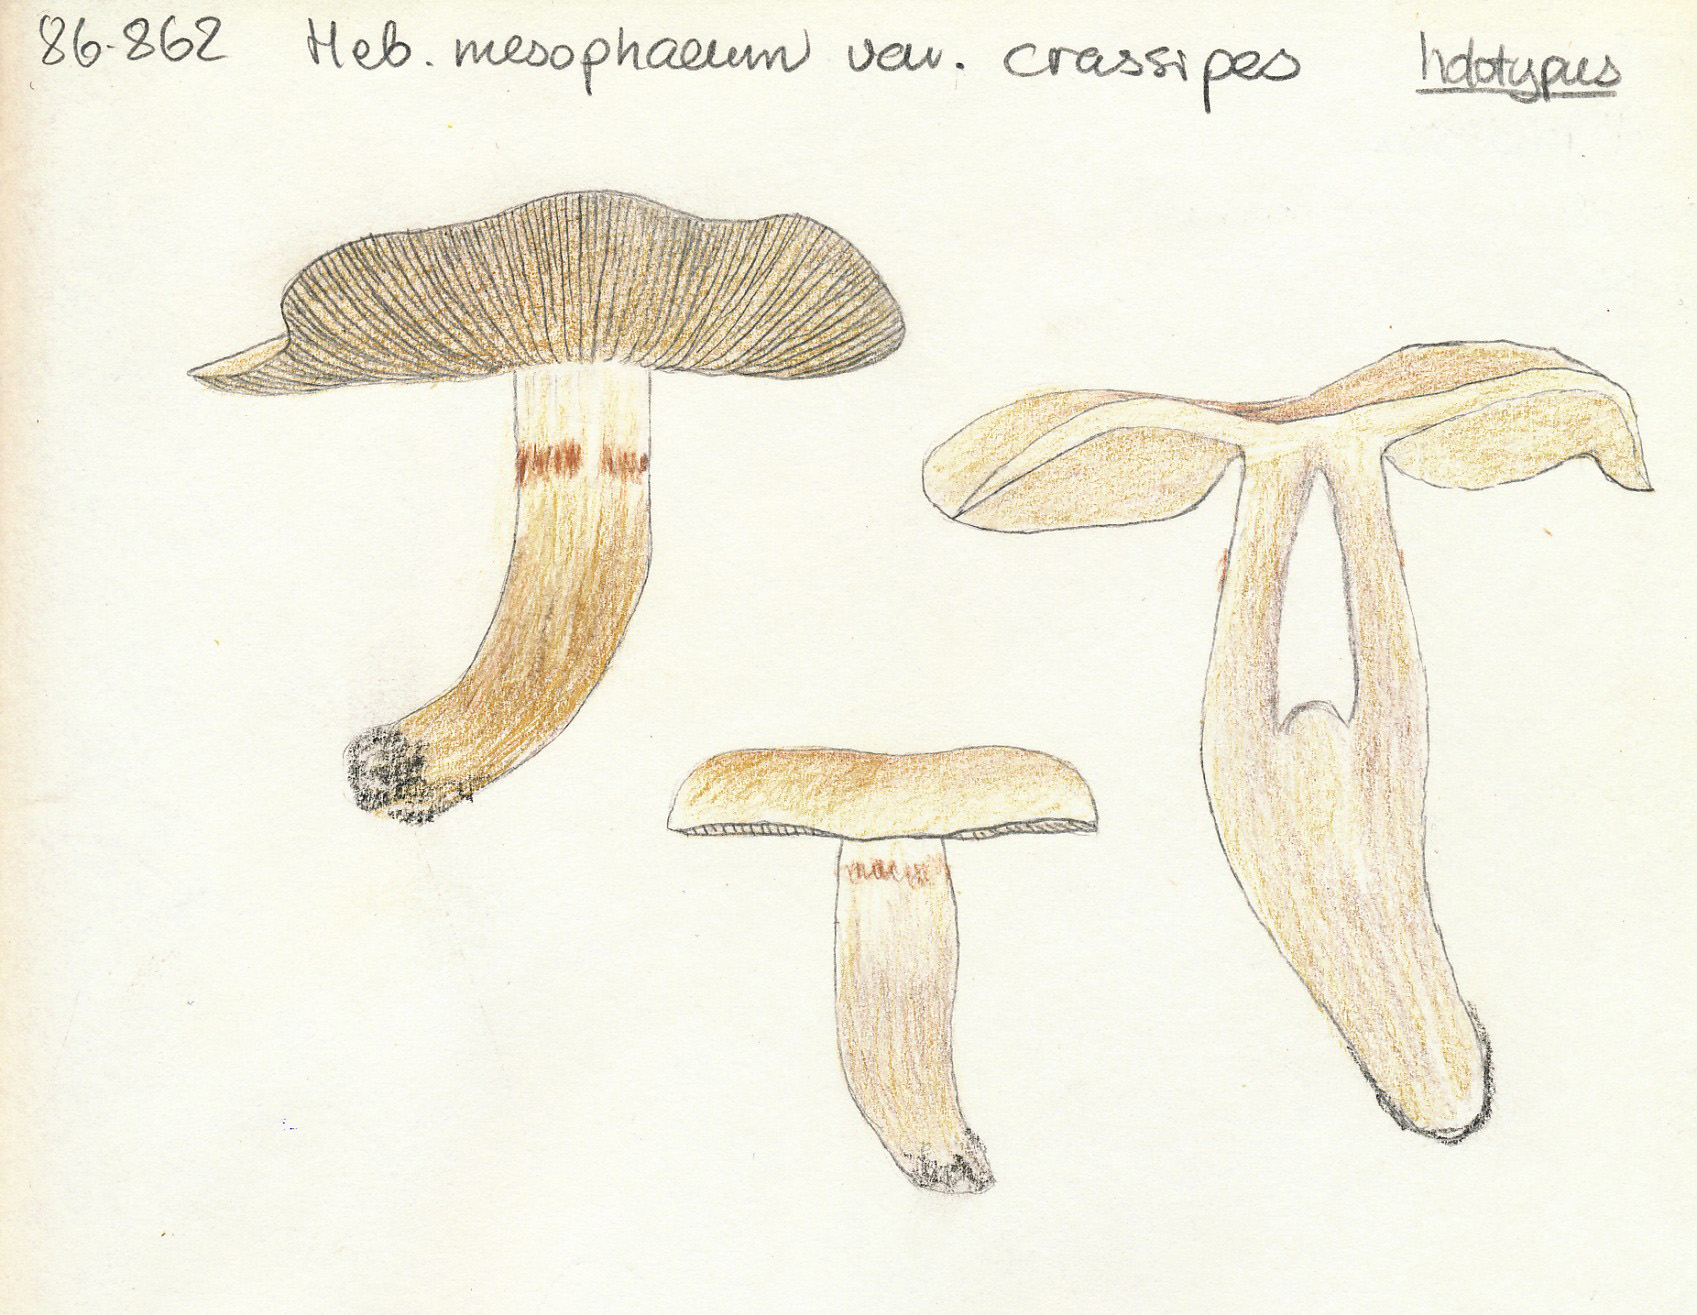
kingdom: Fungi
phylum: Basidiomycota
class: Agaricomycetes
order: Agaricales
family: Hymenogastraceae
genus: Hebeloma
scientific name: Hebeloma mesophaeum
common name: lerbrun tåreblad
